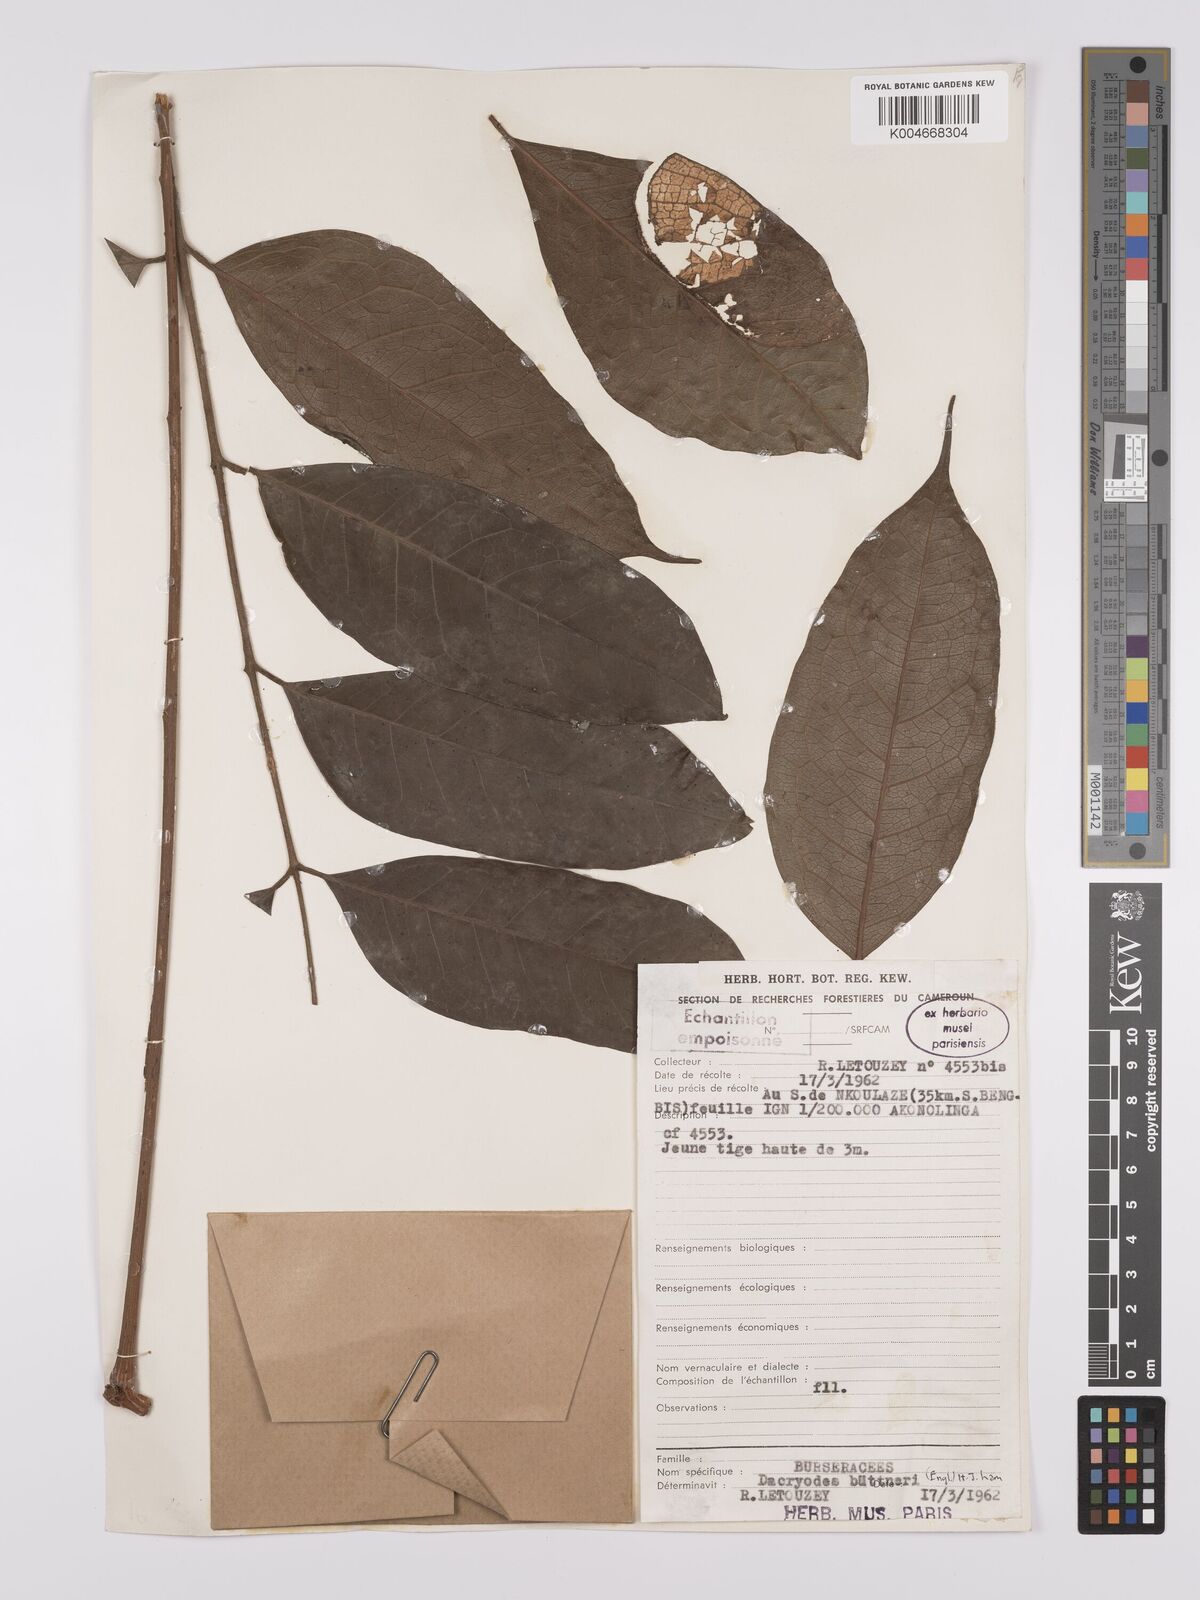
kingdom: Plantae
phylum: Tracheophyta
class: Magnoliopsida
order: Sapindales
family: Burseraceae
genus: Pachylobus
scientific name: Pachylobus buettneri
